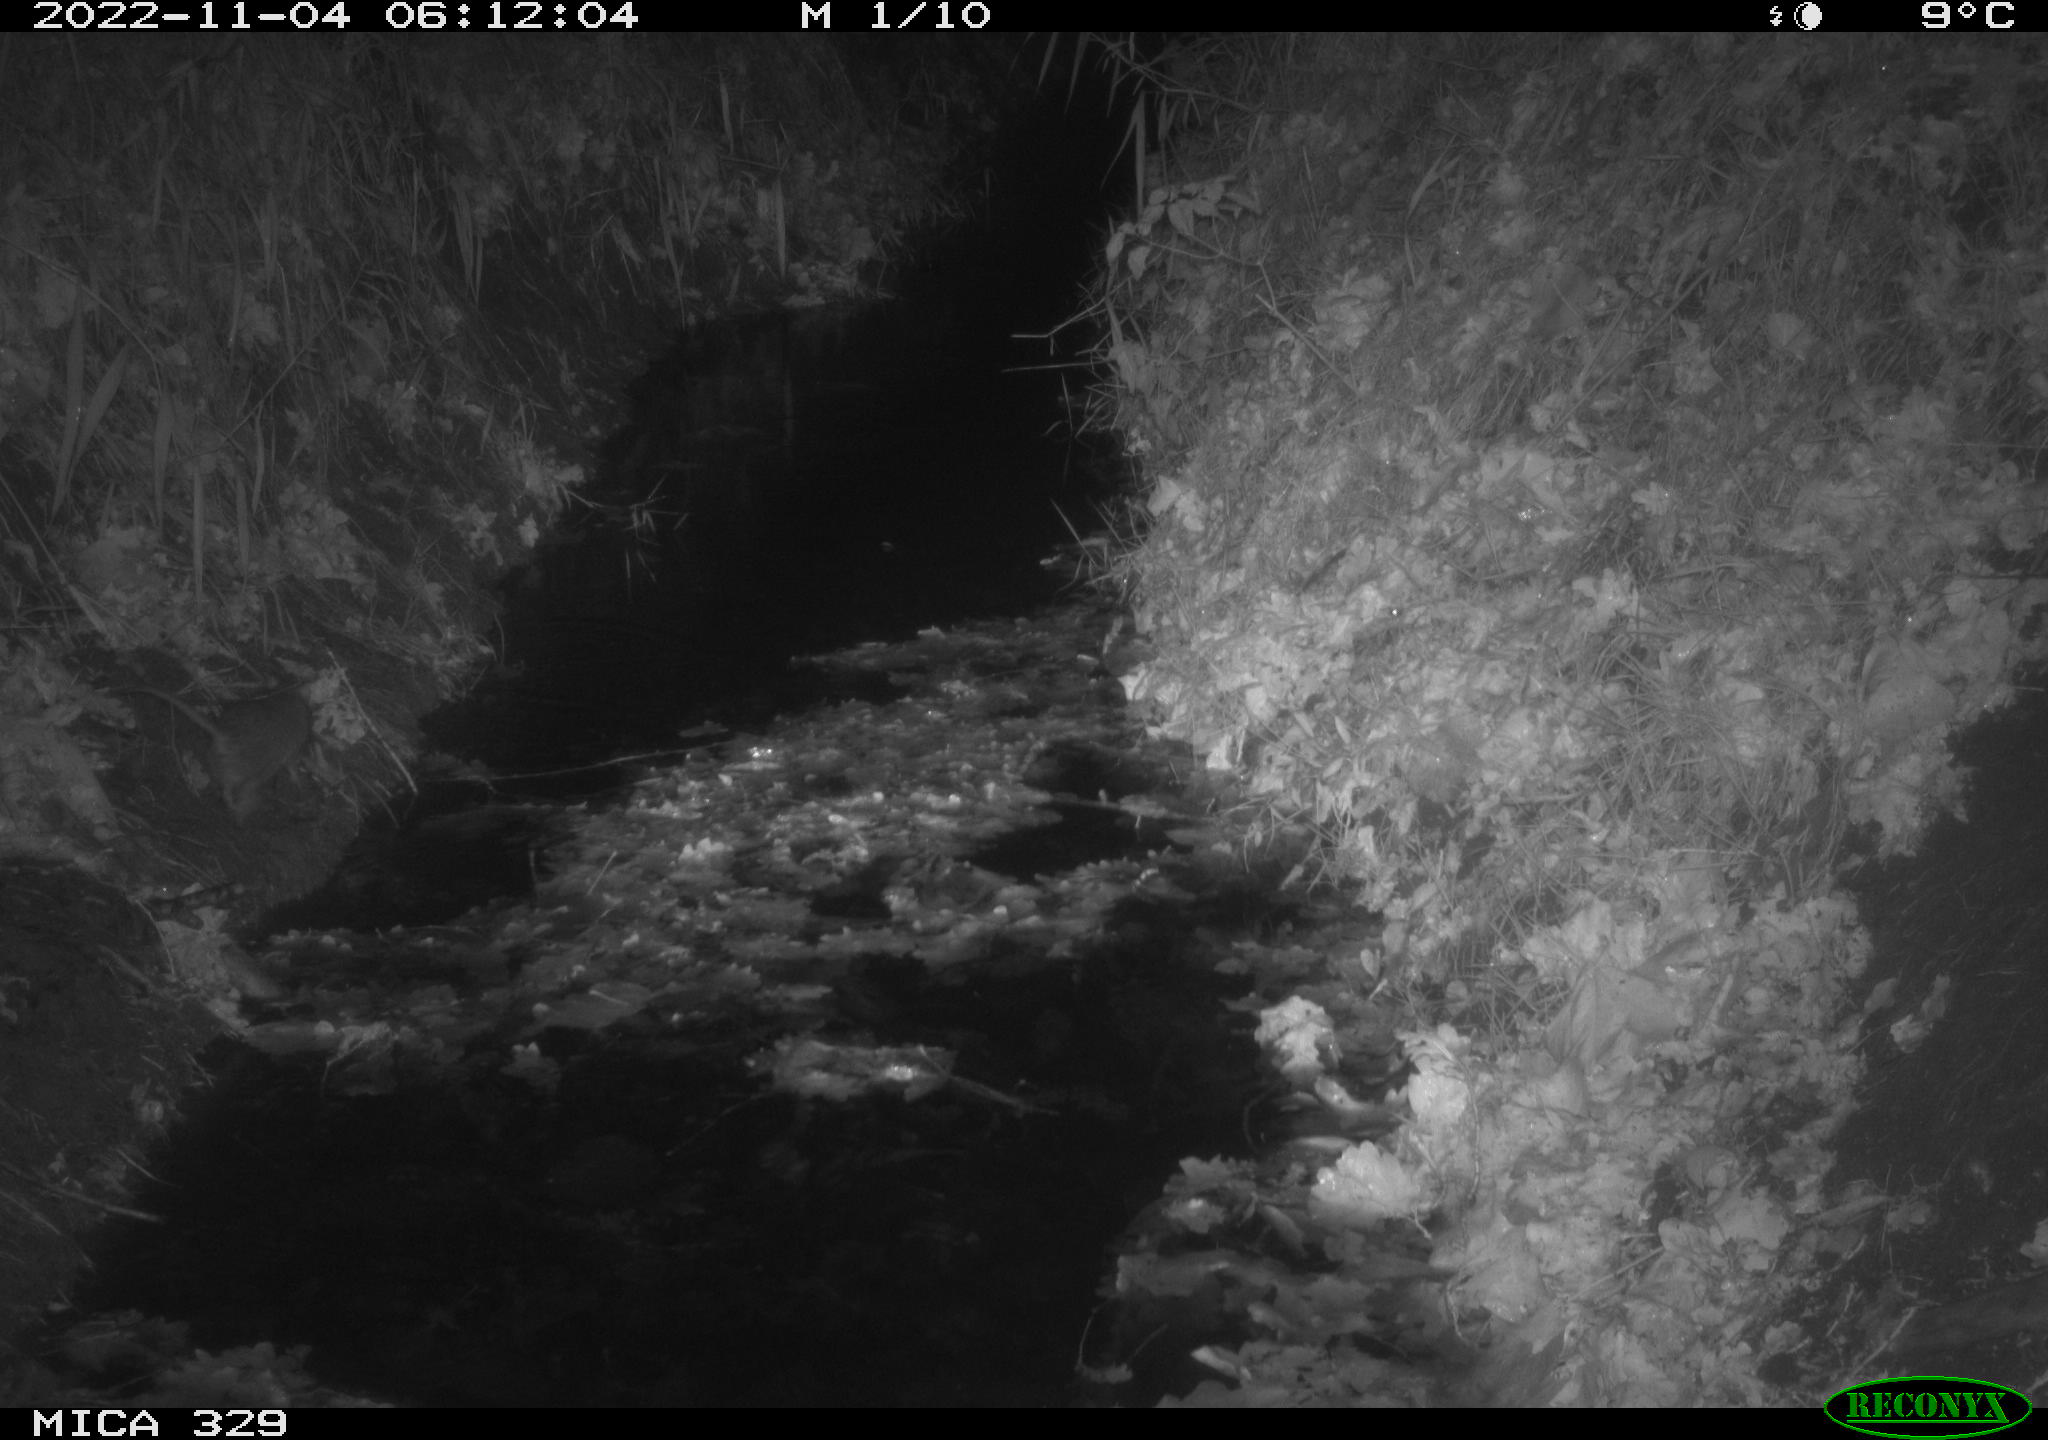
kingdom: Animalia
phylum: Chordata
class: Mammalia
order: Rodentia
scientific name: Rodentia
